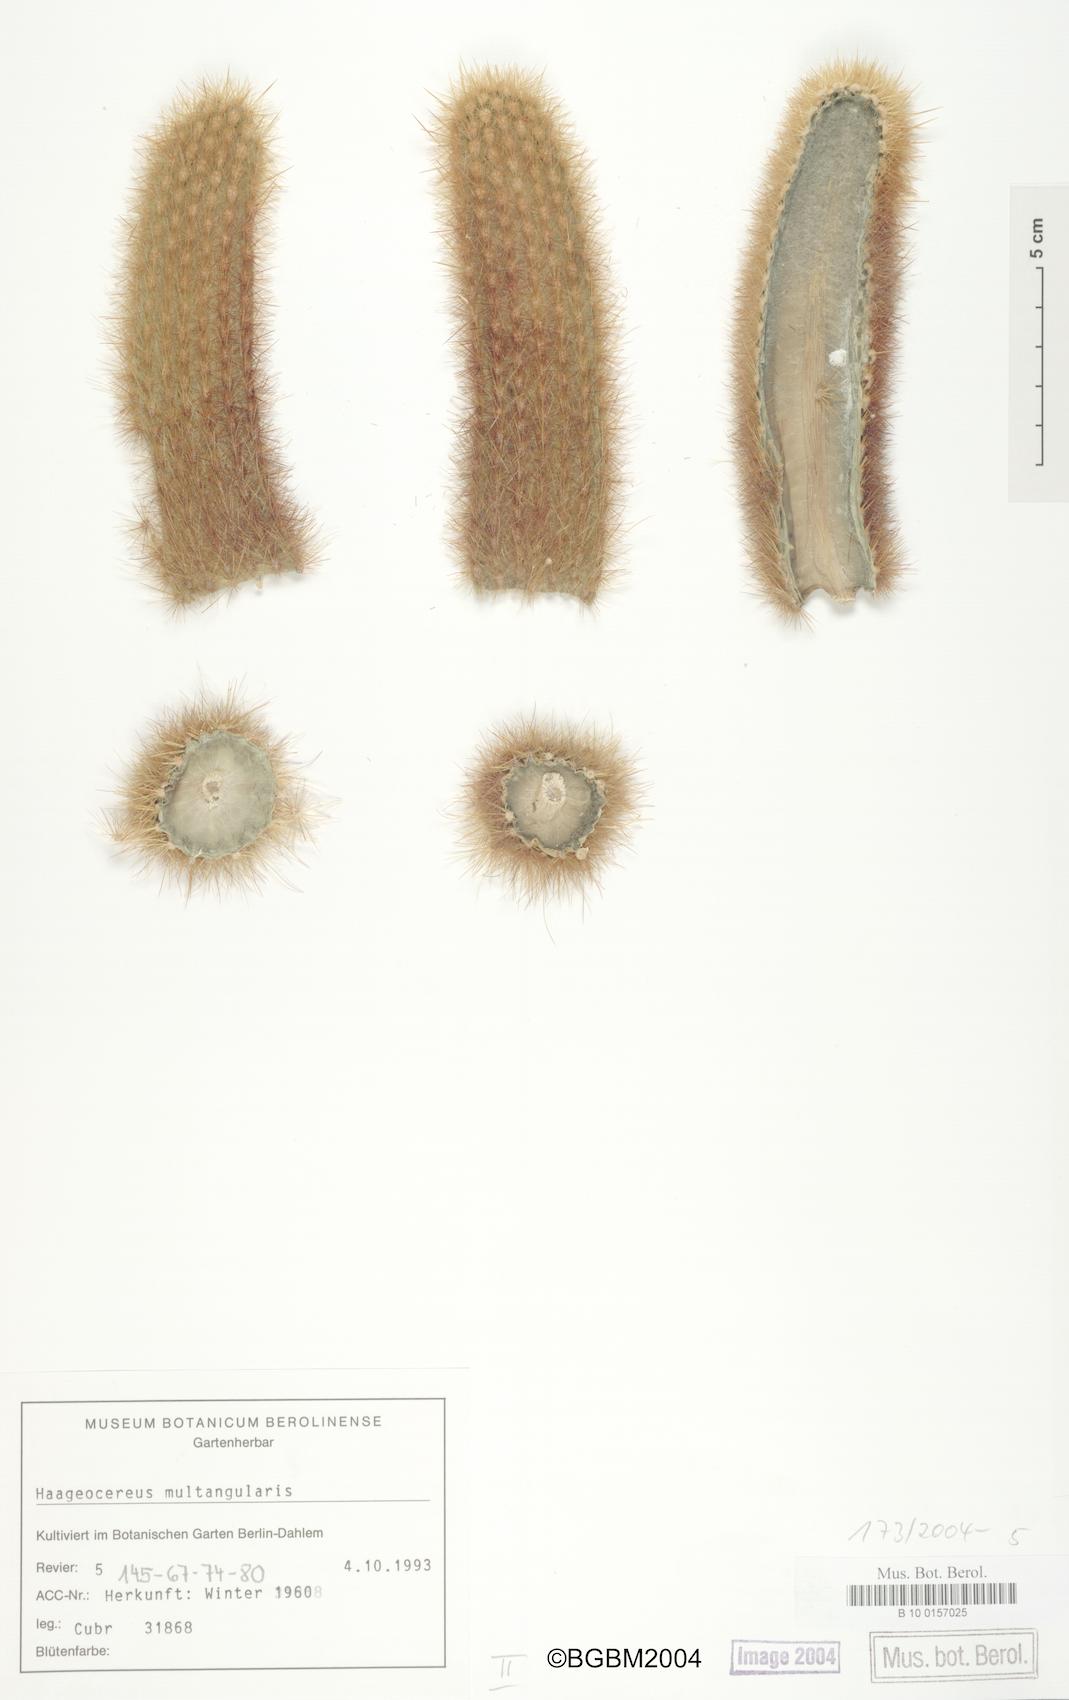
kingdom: Plantae
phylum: Tracheophyta
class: Magnoliopsida
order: Caryophyllales
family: Cactaceae
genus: Haageocereus
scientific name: Haageocereus pseudomelanostele
